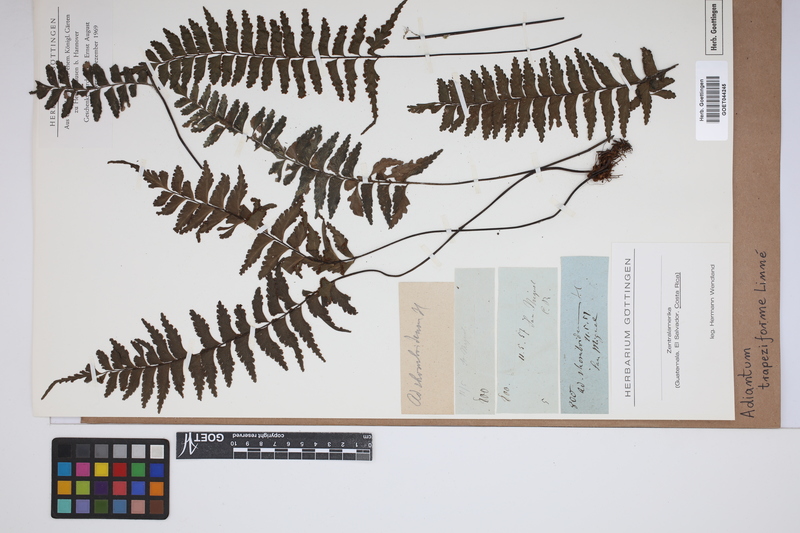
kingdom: Plantae
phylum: Tracheophyta
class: Polypodiopsida
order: Polypodiales
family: Pteridaceae
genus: Adiantum
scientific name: Adiantum trapeziforme
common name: Diamond maidenhair
